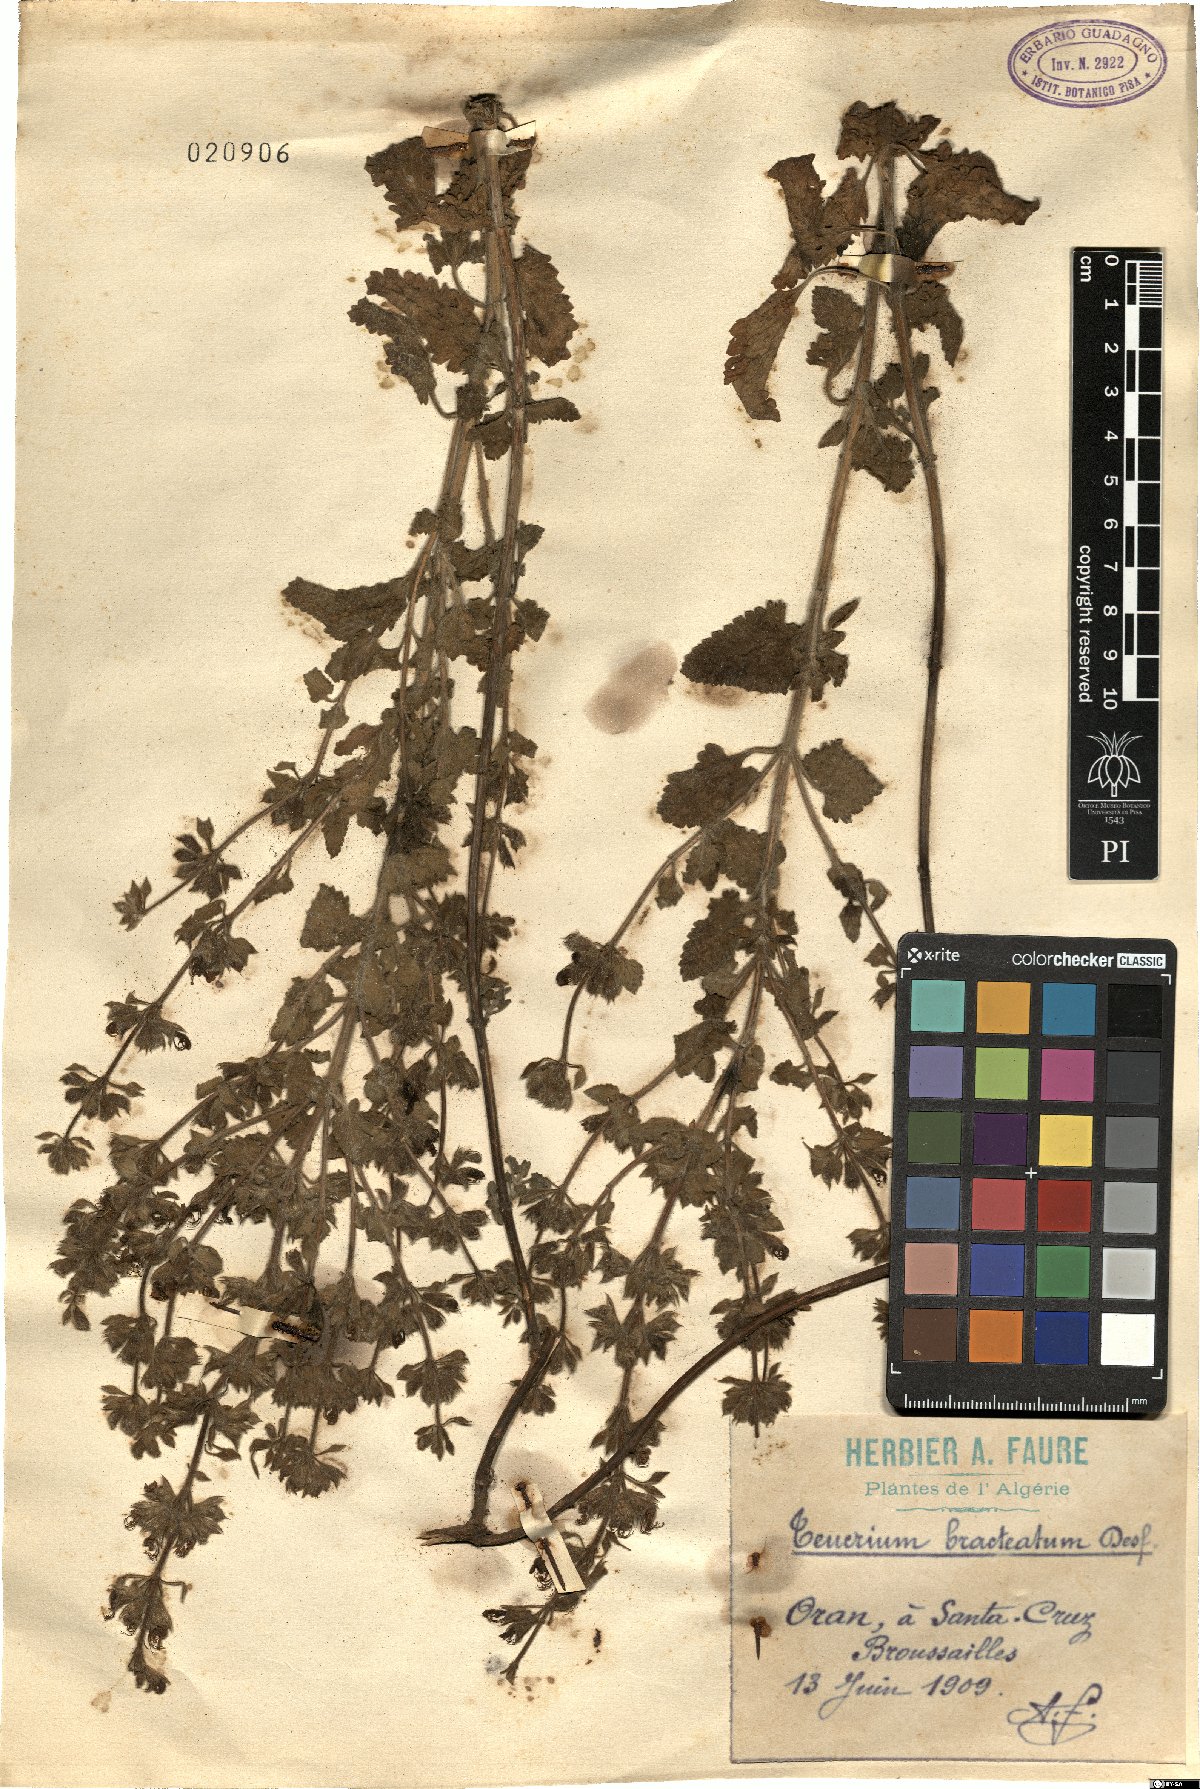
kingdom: Plantae
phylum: Tracheophyta
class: Magnoliopsida
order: Lamiales
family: Lamiaceae
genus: Teucrium
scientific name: Teucrium bracteatum
